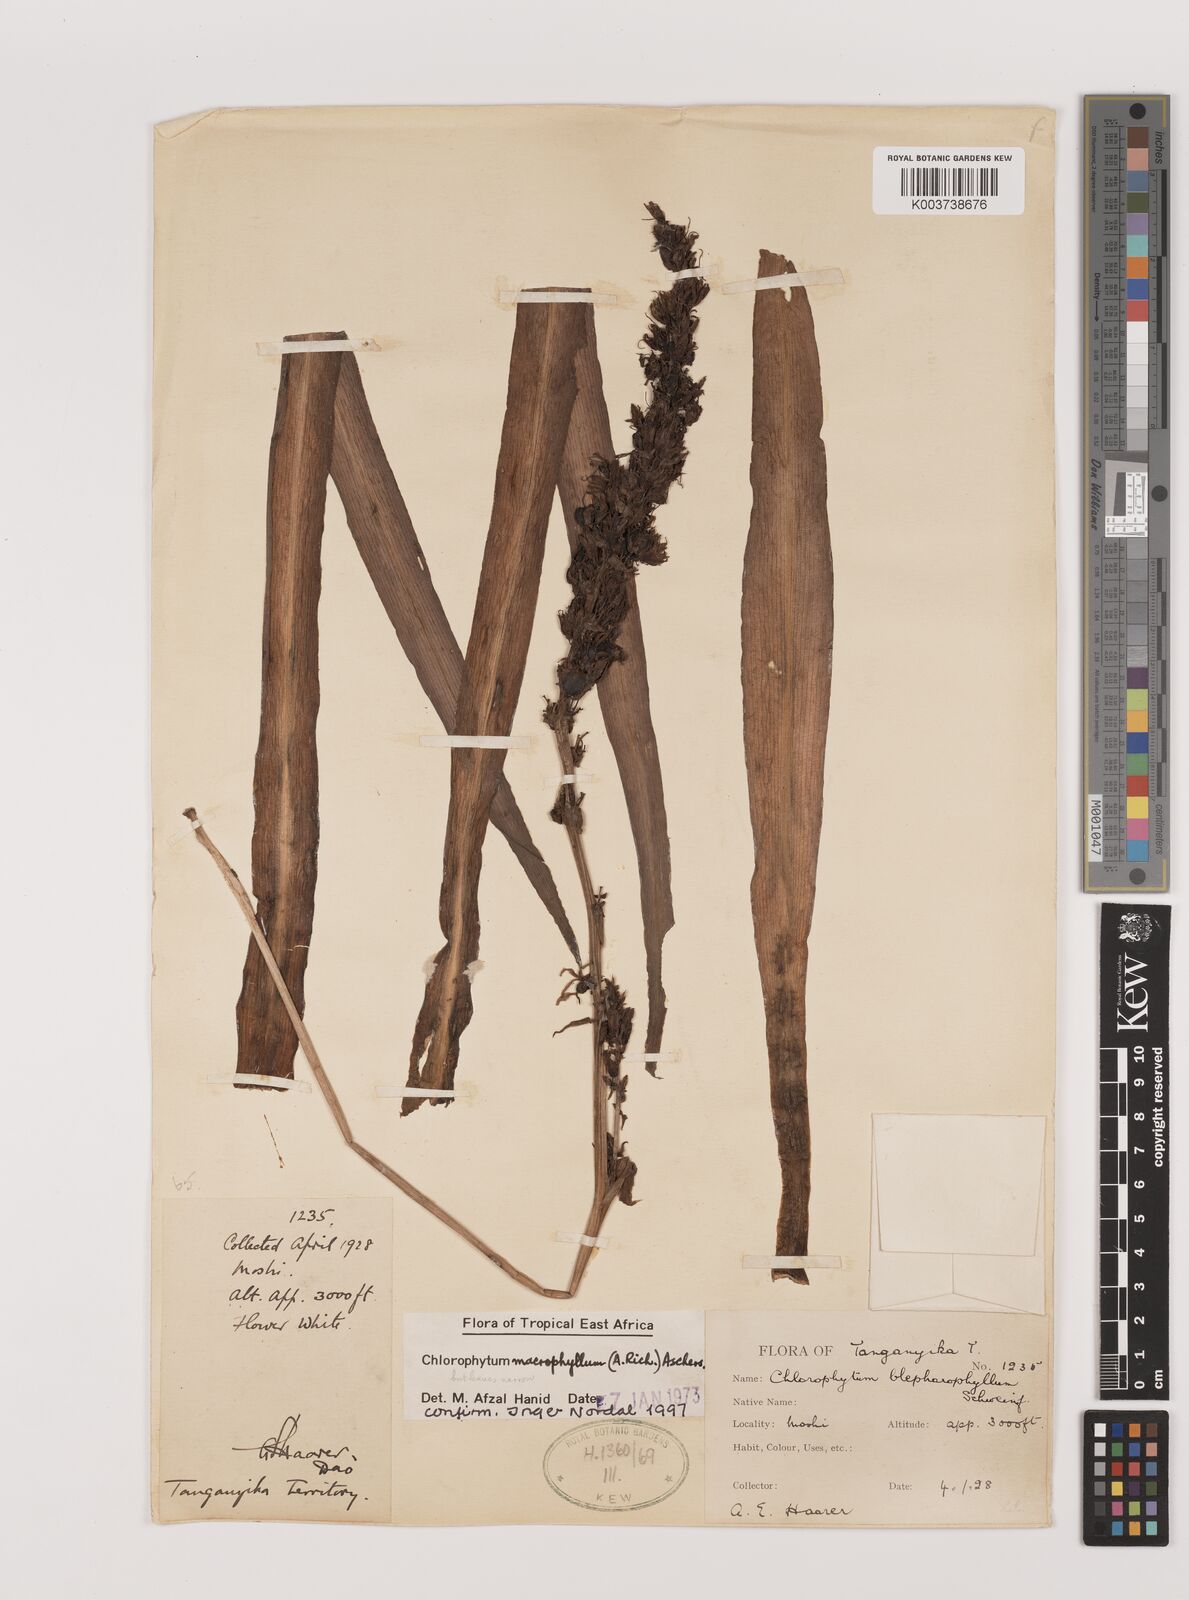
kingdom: Plantae
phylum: Tracheophyta
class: Liliopsida
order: Asparagales
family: Asparagaceae
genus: Chlorophytum
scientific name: Chlorophytum macrophyllum
